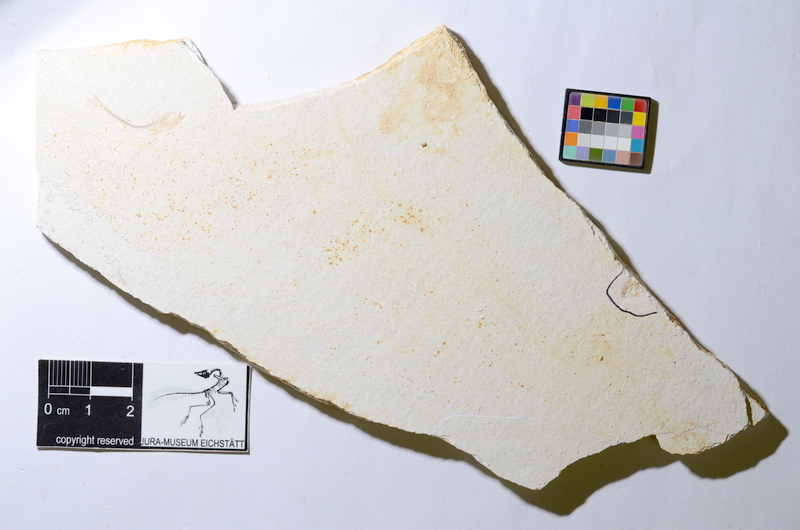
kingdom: Animalia
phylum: Chordata
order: Salmoniformes
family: Orthogonikleithridae
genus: Orthogonikleithrus
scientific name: Orthogonikleithrus hoelli
